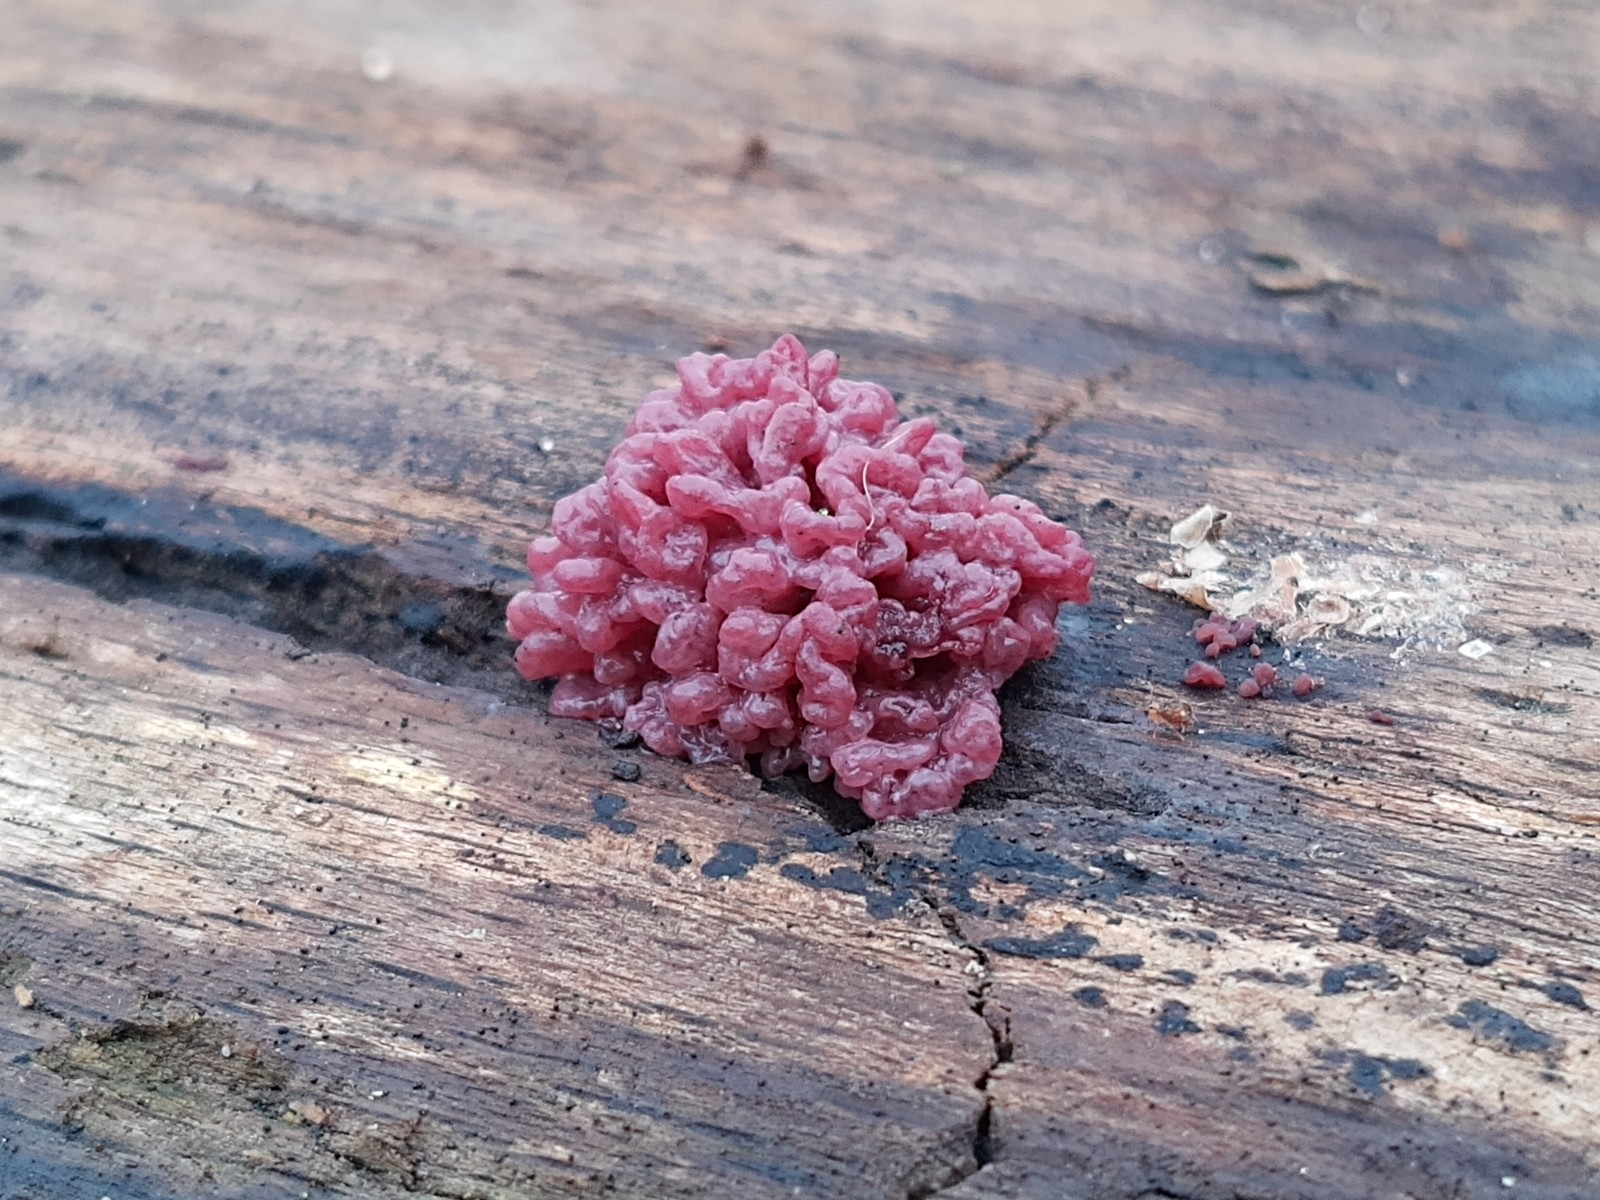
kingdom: Fungi
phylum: Ascomycota
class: Leotiomycetes
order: Helotiales
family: Gelatinodiscaceae
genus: Ascocoryne
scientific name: Ascocoryne sarcoides
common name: rødlilla sejskive
